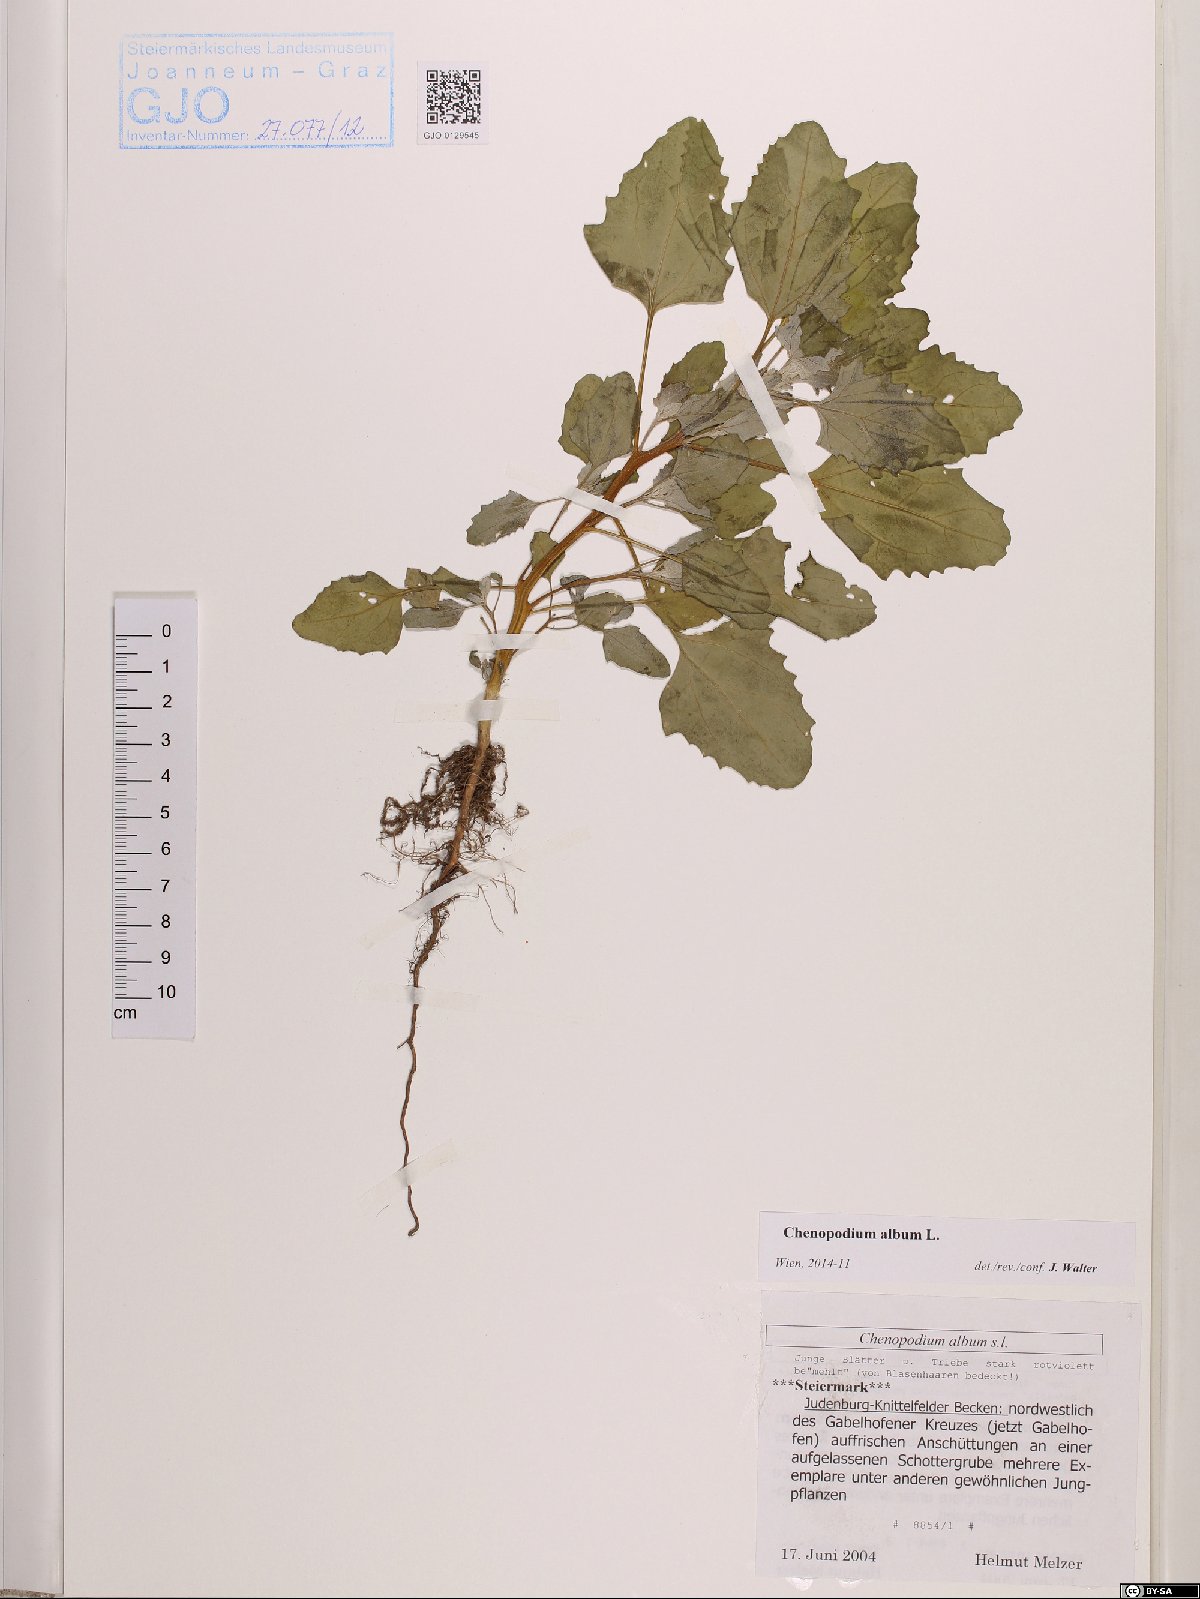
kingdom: Plantae
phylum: Tracheophyta
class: Magnoliopsida
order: Caryophyllales
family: Amaranthaceae
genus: Chenopodium
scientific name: Chenopodium album
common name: Fat-hen
